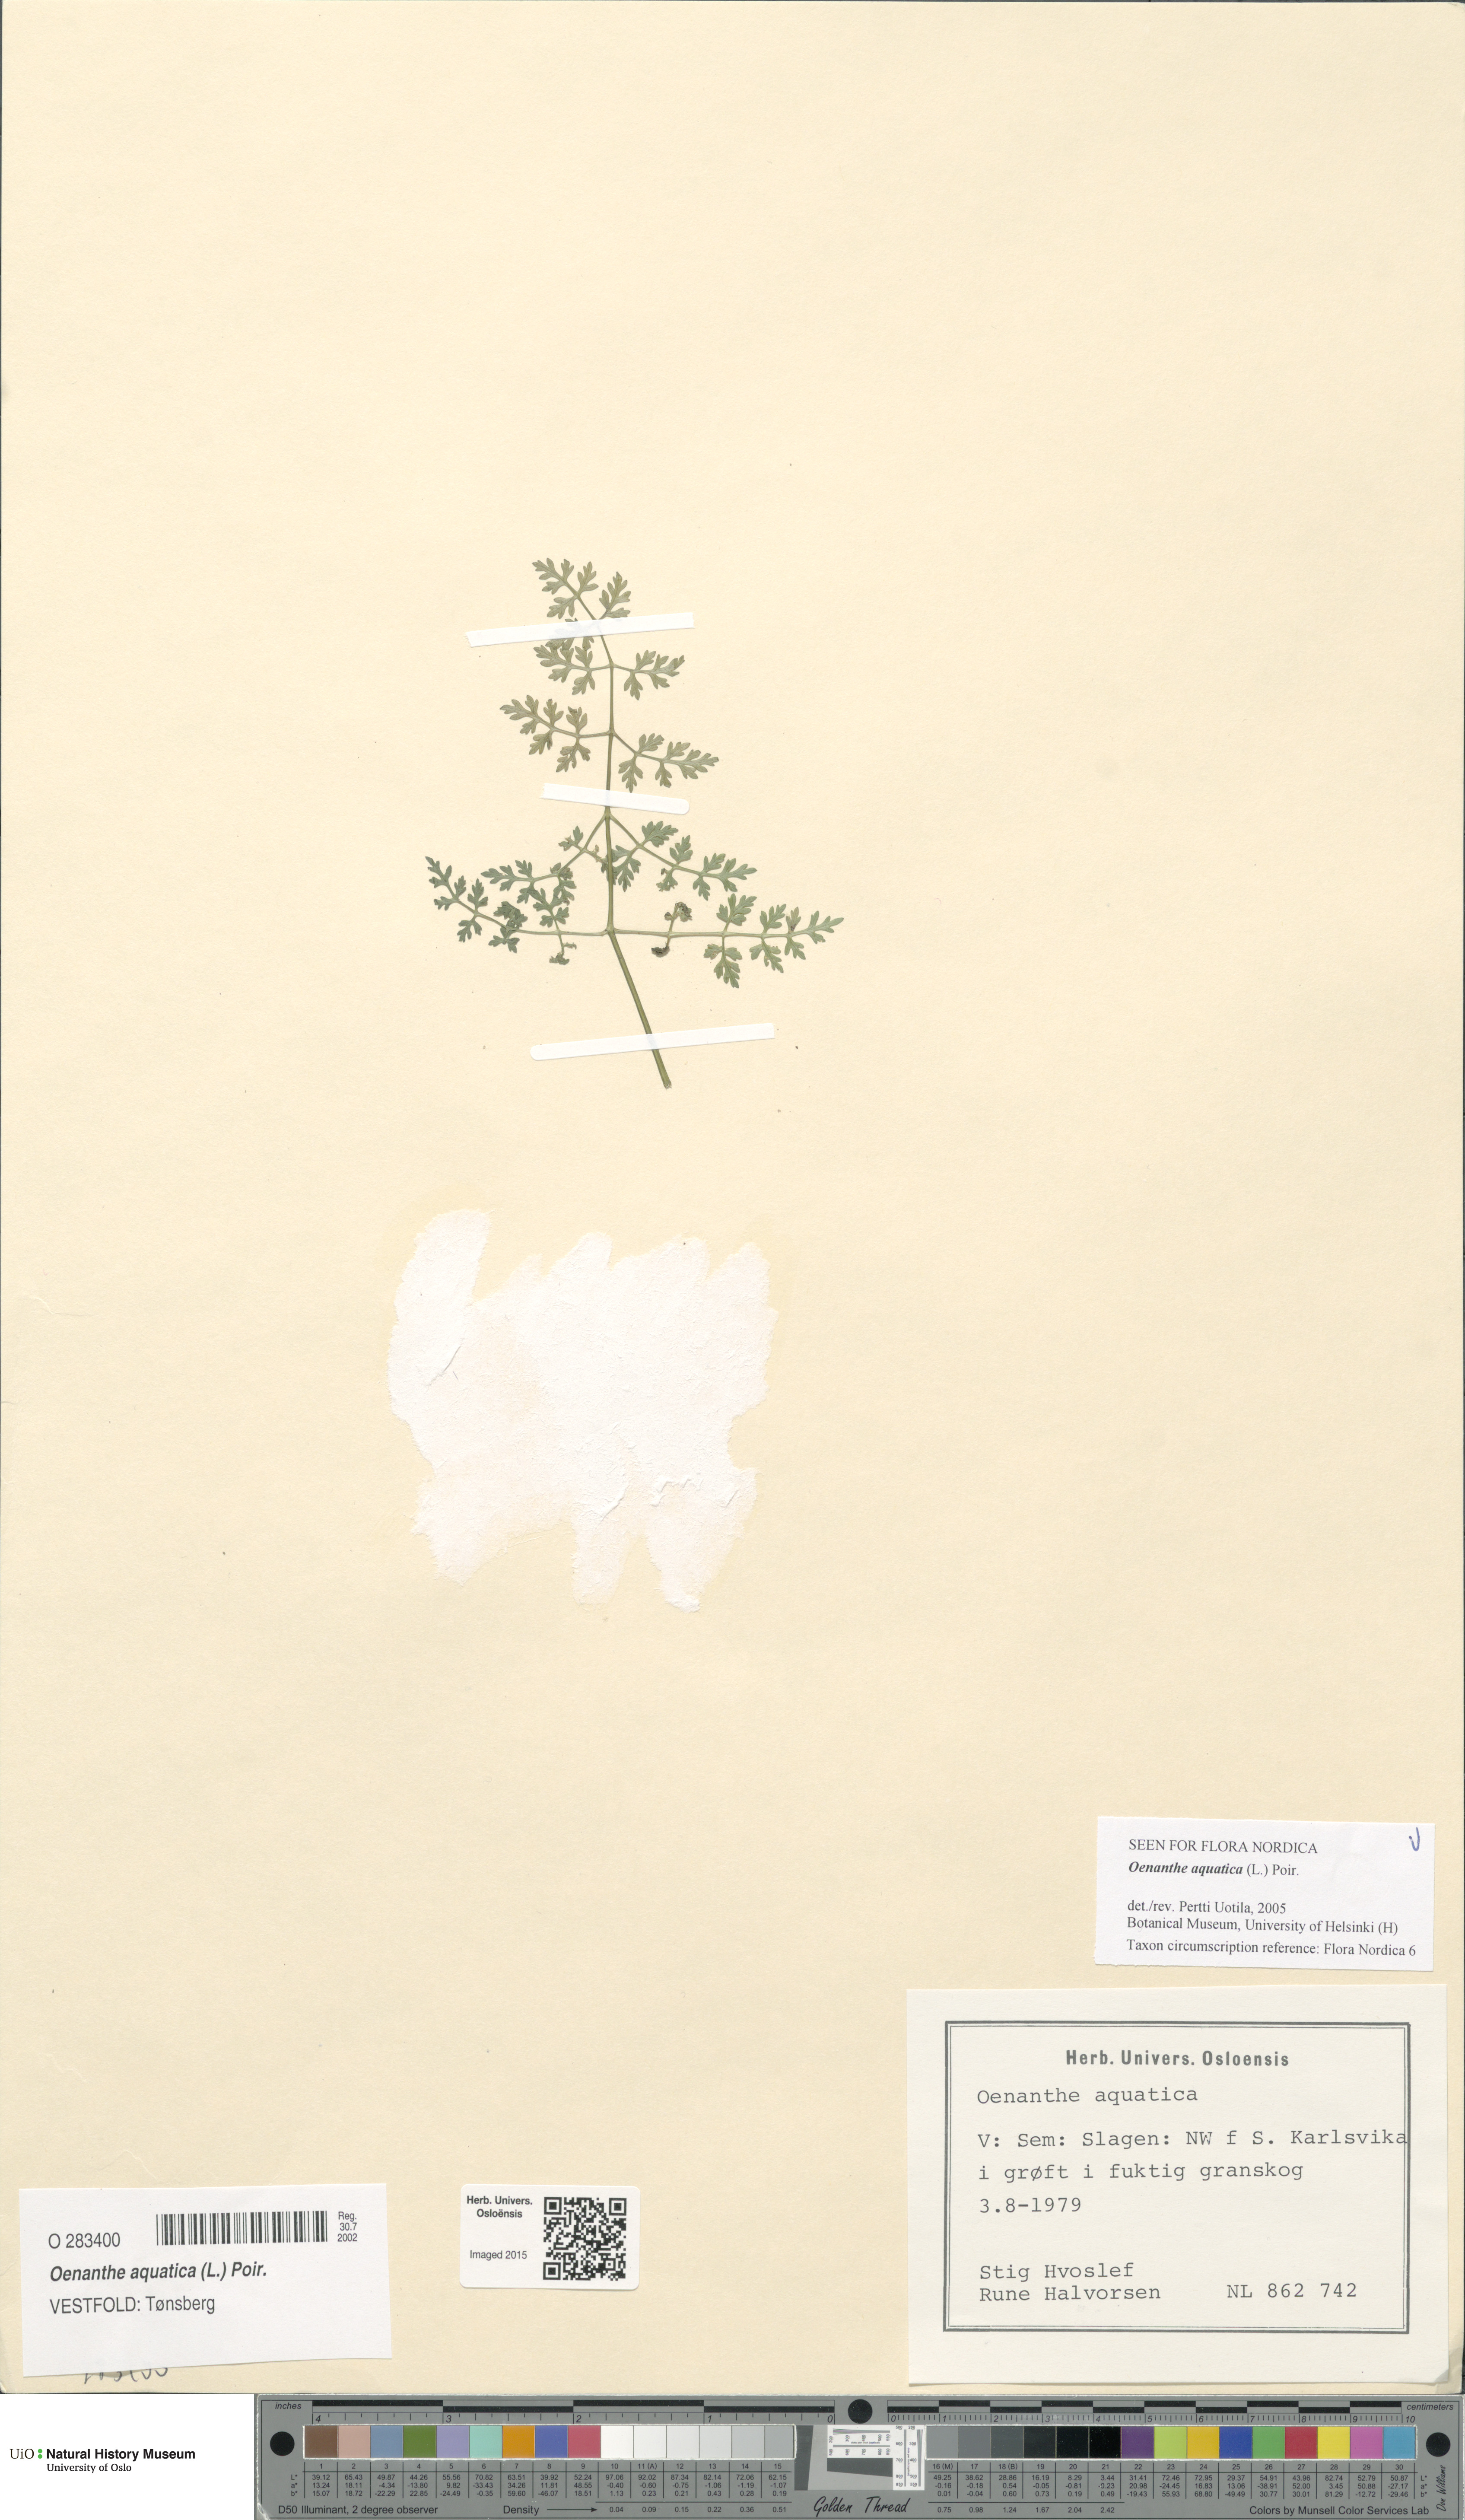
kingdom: Plantae
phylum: Tracheophyta
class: Magnoliopsida
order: Apiales
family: Apiaceae
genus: Oenanthe
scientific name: Oenanthe aquatica
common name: Fine-leaved water-dropwort
